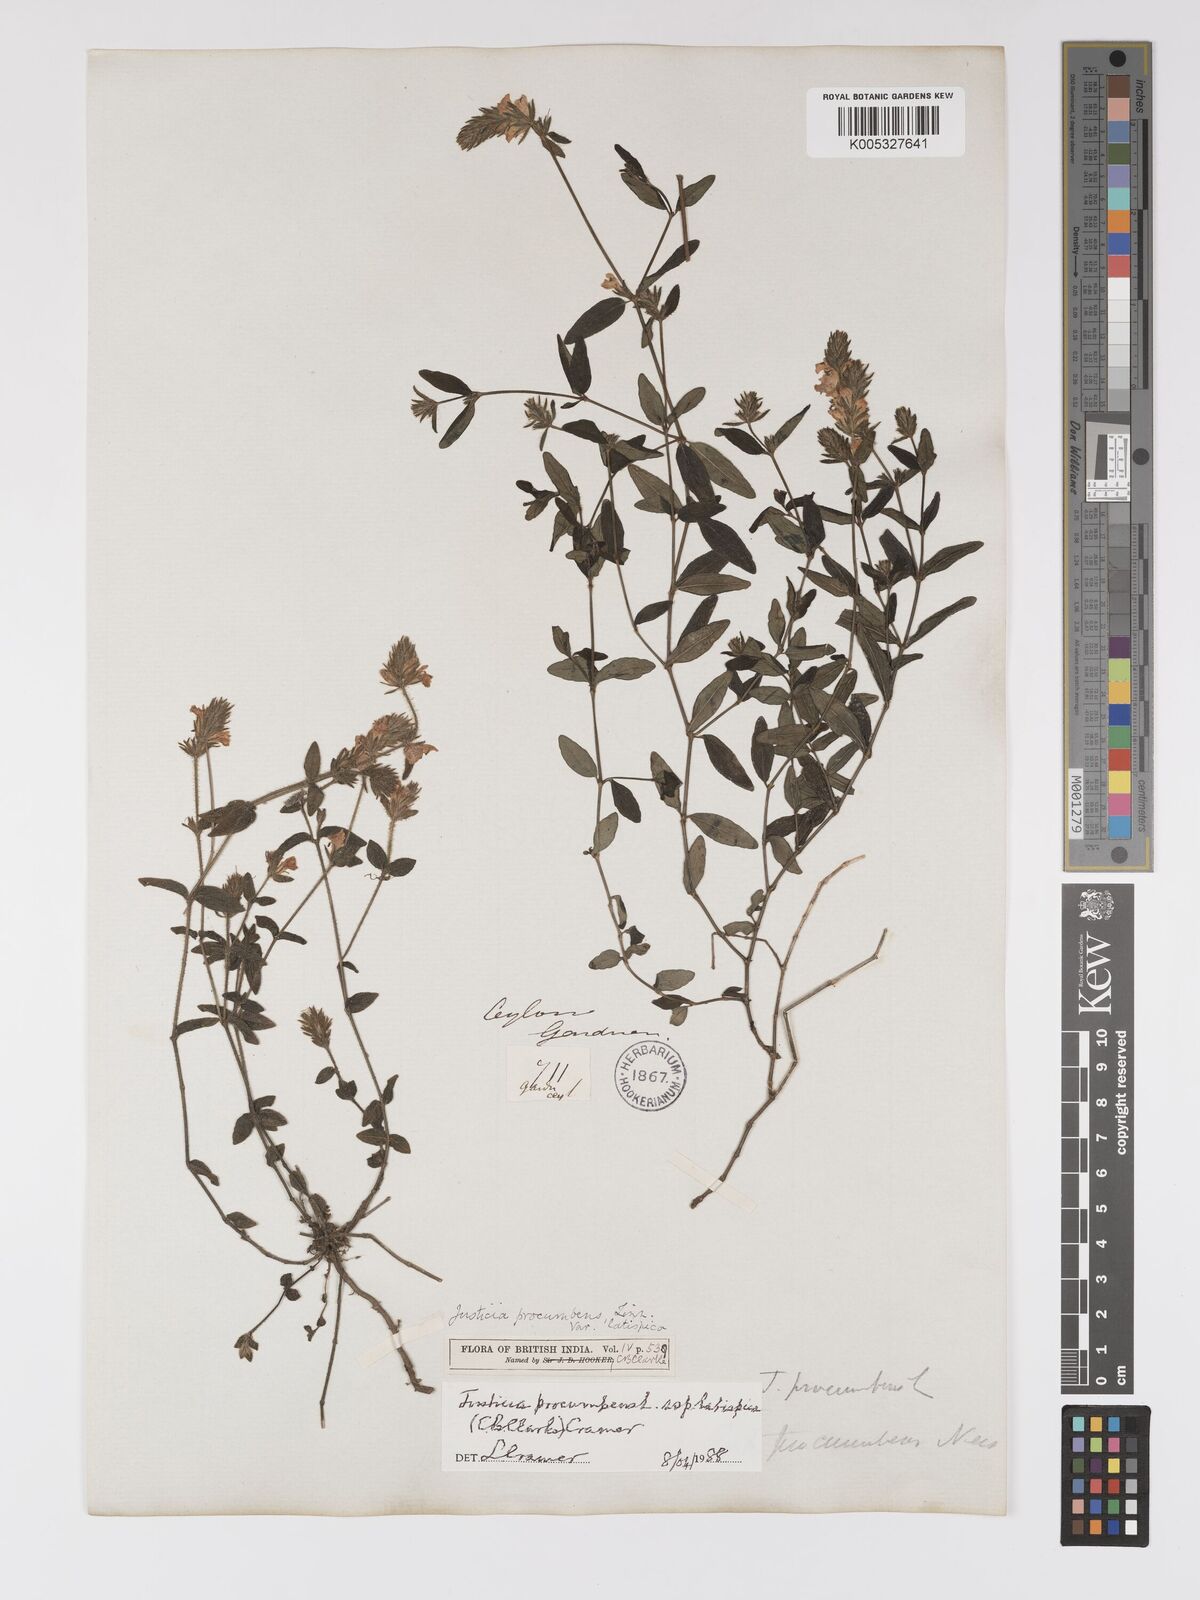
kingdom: Plantae
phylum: Tracheophyta
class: Magnoliopsida
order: Lamiales
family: Acanthaceae
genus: Rostellularia
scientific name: Rostellularia latispica
